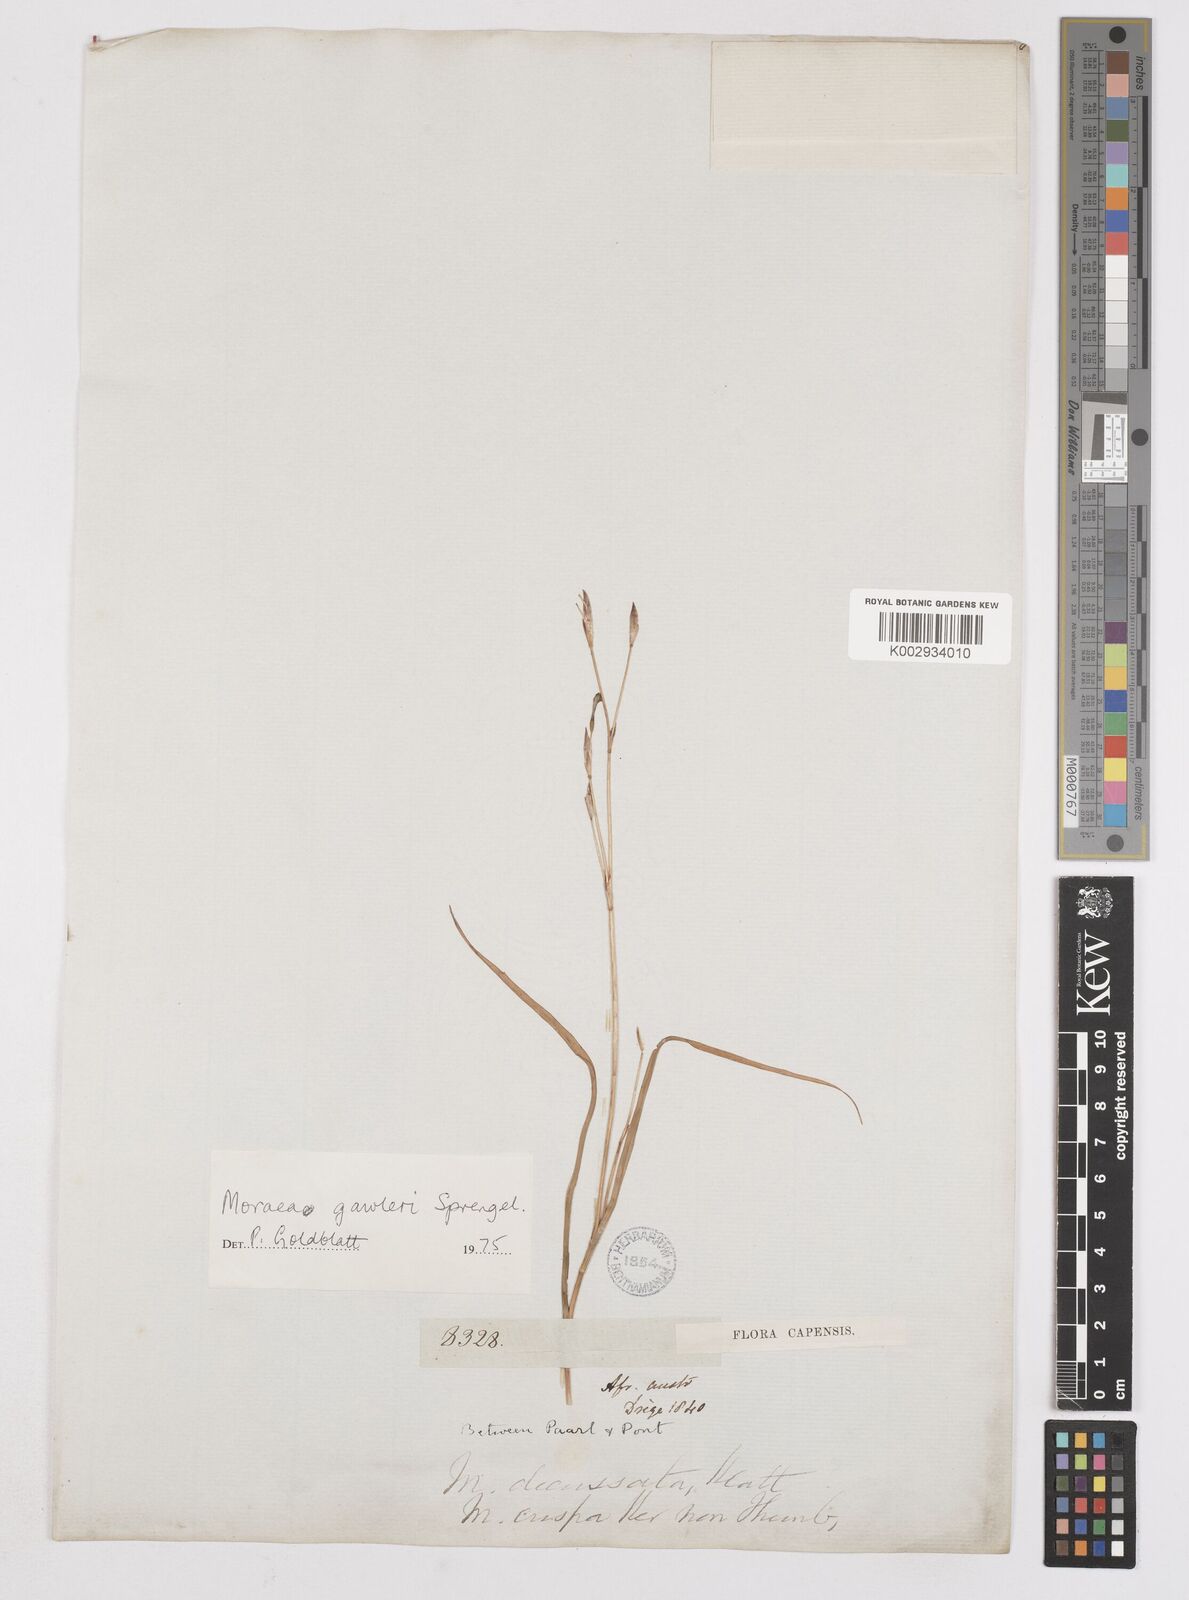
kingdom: Plantae
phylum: Tracheophyta
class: Liliopsida
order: Asparagales
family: Iridaceae
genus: Moraea
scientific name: Moraea gawleri
